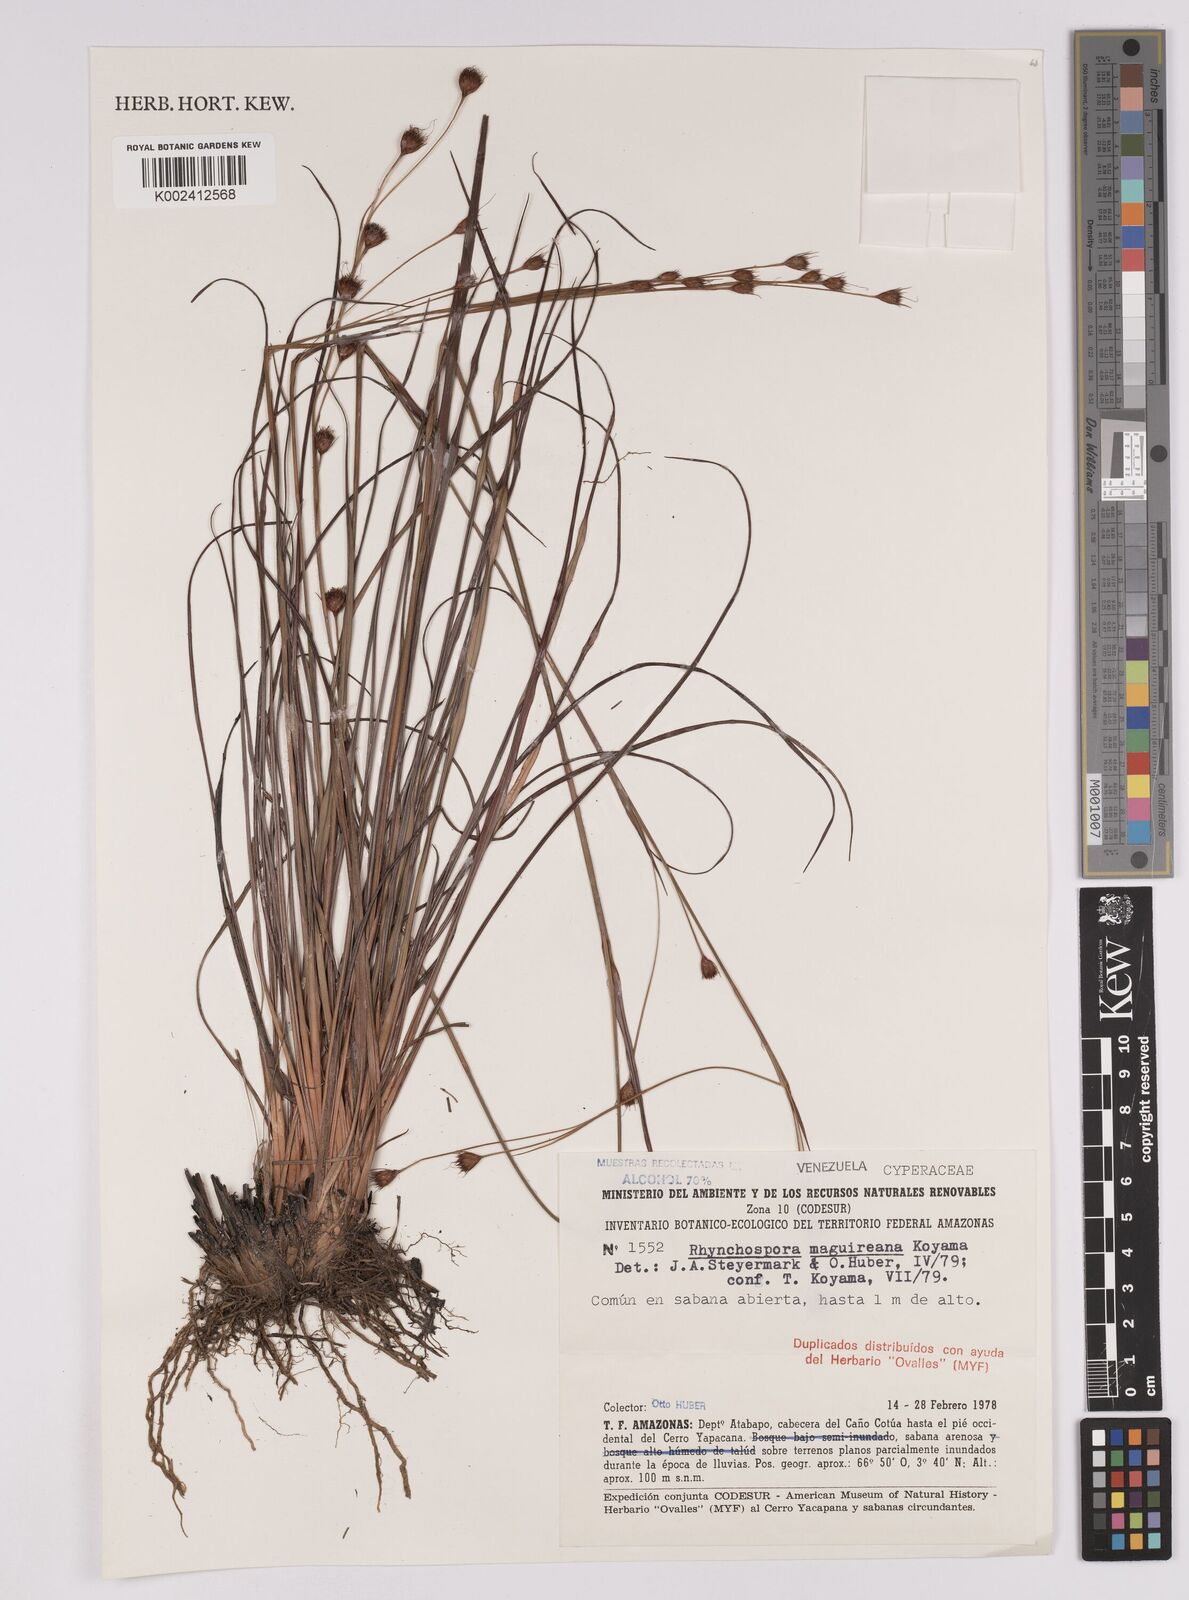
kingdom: Plantae
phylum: Tracheophyta
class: Liliopsida
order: Poales
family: Cyperaceae
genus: Rhynchospora
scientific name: Rhynchospora maguireana
